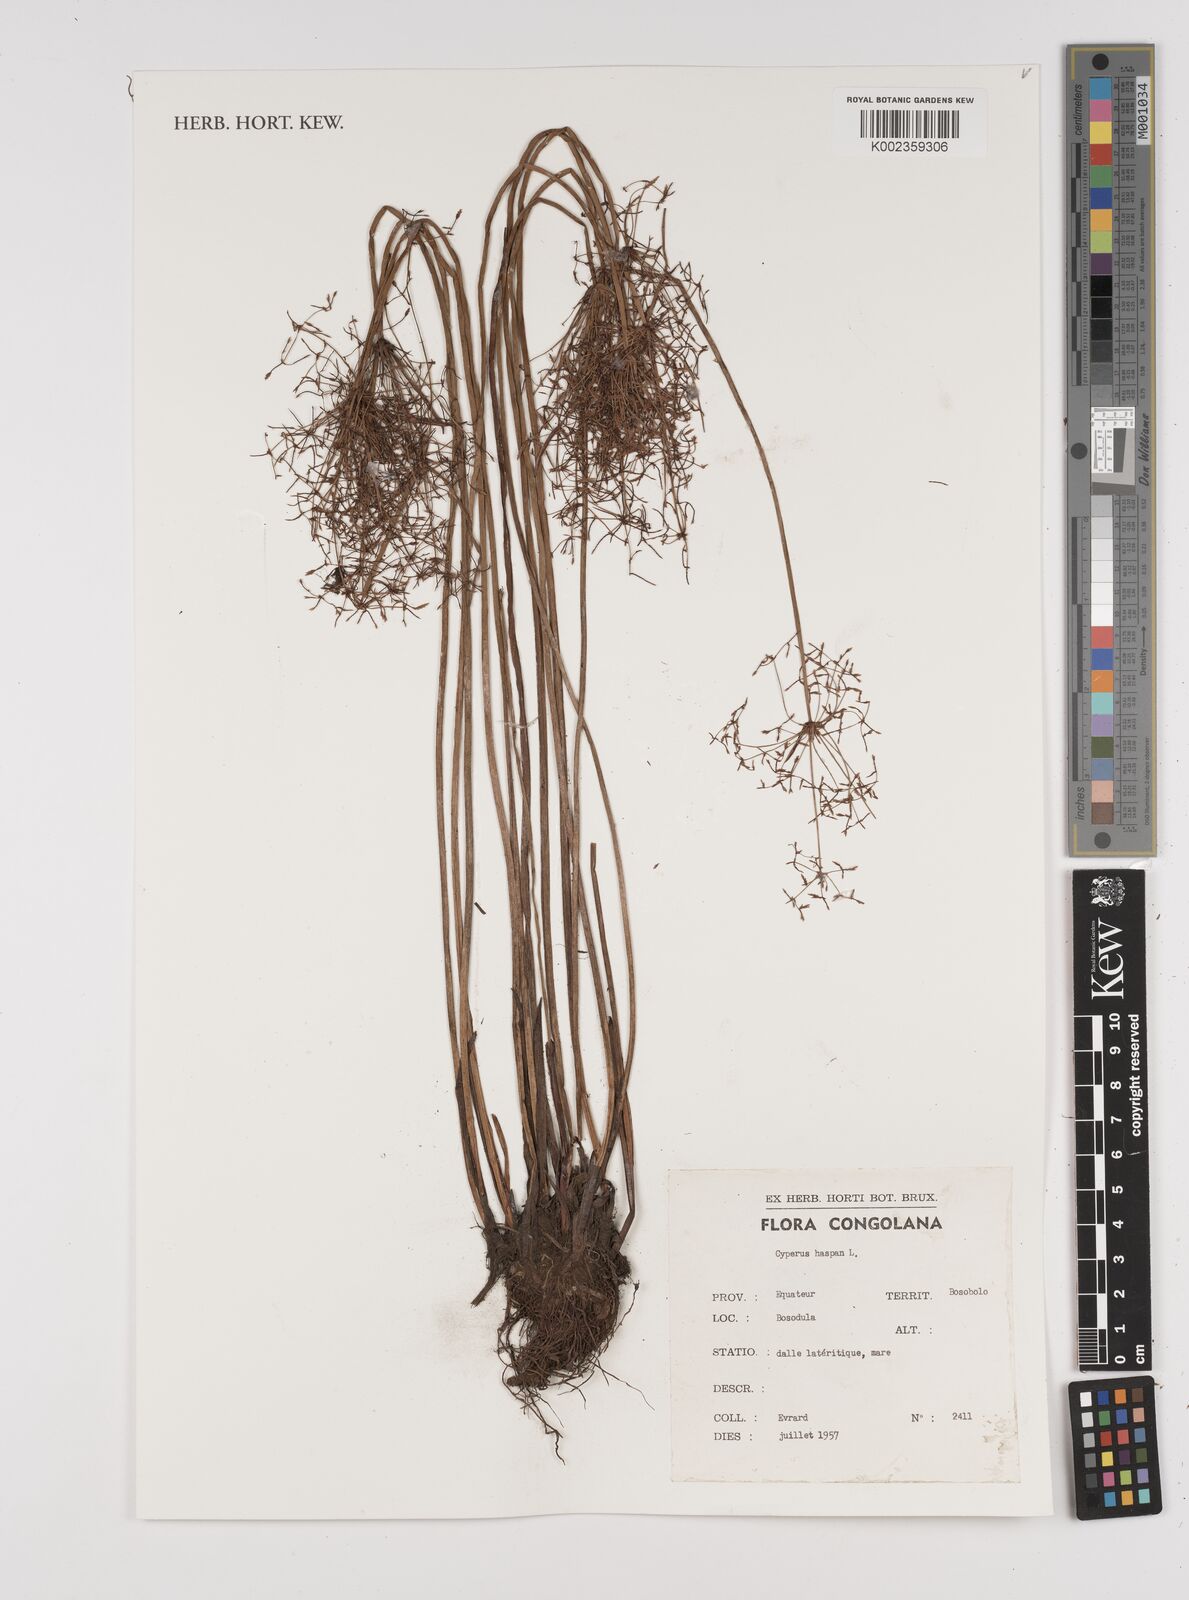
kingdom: Plantae
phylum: Tracheophyta
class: Liliopsida
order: Poales
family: Cyperaceae
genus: Cyperus
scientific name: Cyperus haspan
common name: Haspan flatsedge
